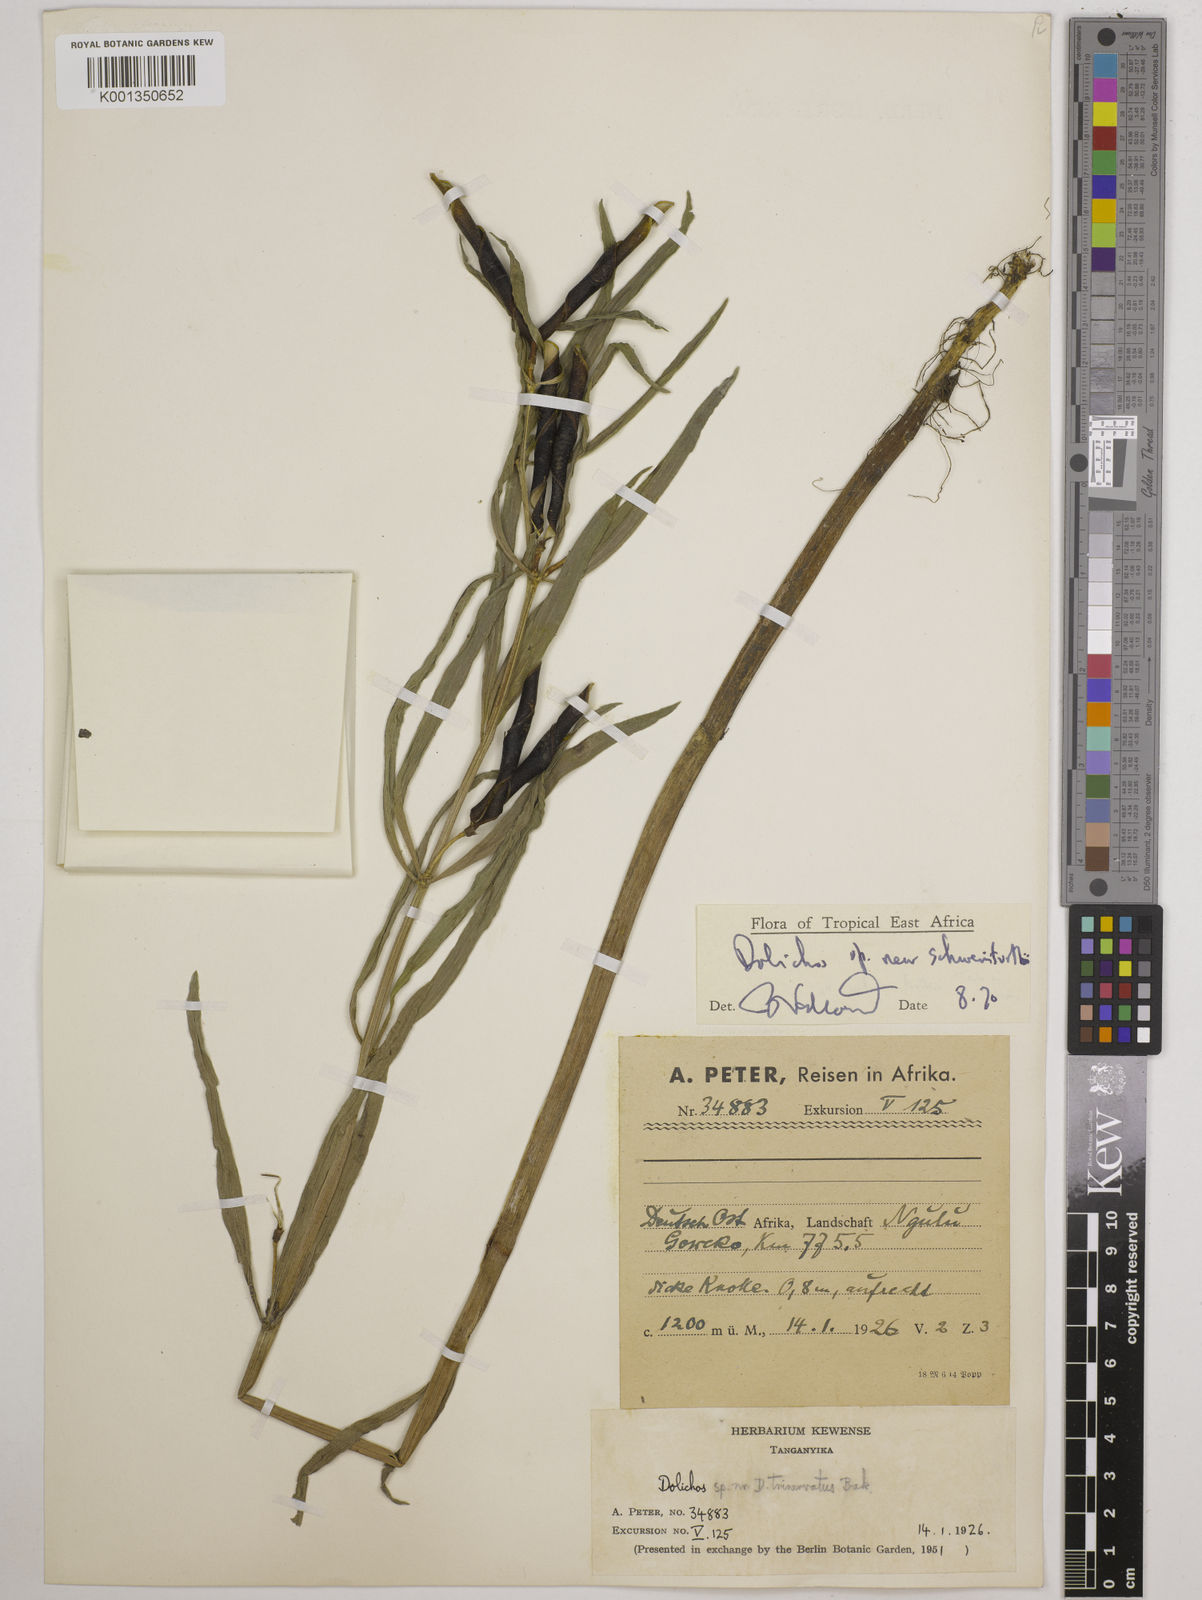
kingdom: Plantae
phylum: Tracheophyta
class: Magnoliopsida
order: Fabales
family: Fabaceae
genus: Dolichos
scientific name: Dolichos schweinfurthii
